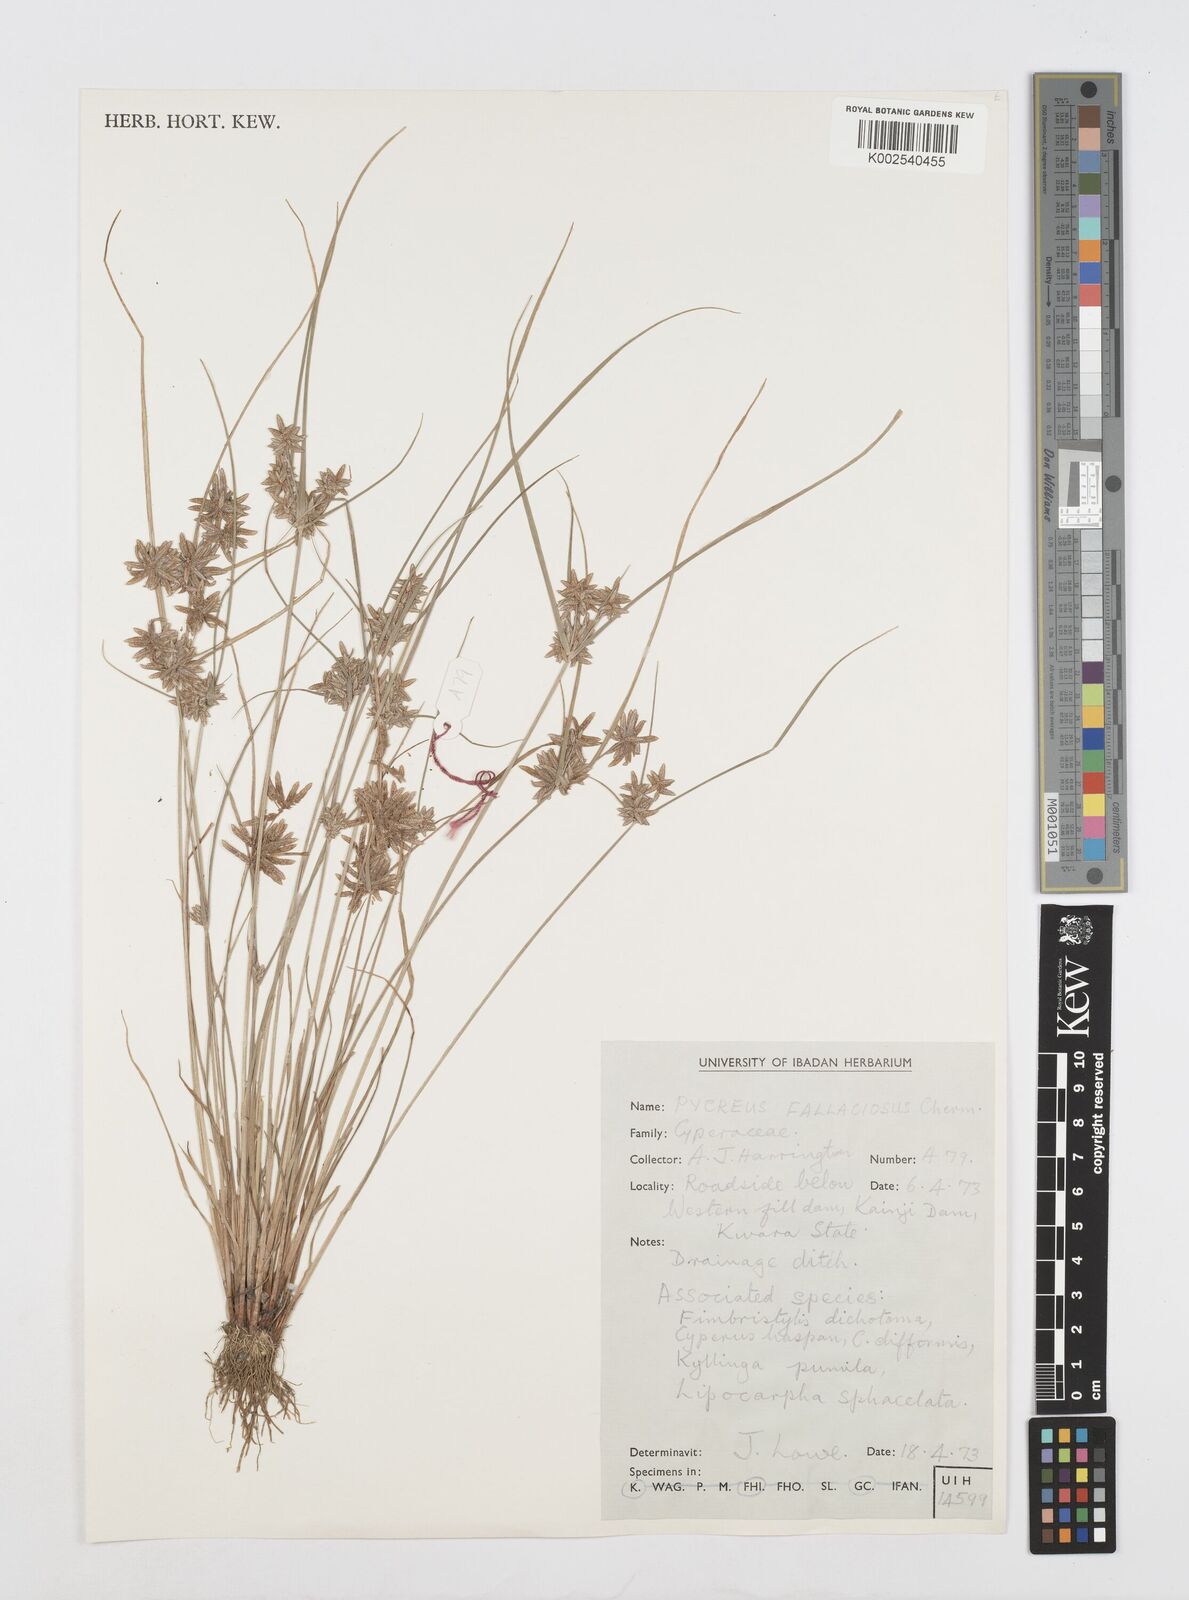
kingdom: Plantae
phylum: Tracheophyta
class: Liliopsida
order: Poales
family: Cyperaceae
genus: Cyperus
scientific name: Cyperus flavescens
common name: Yellow galingale
